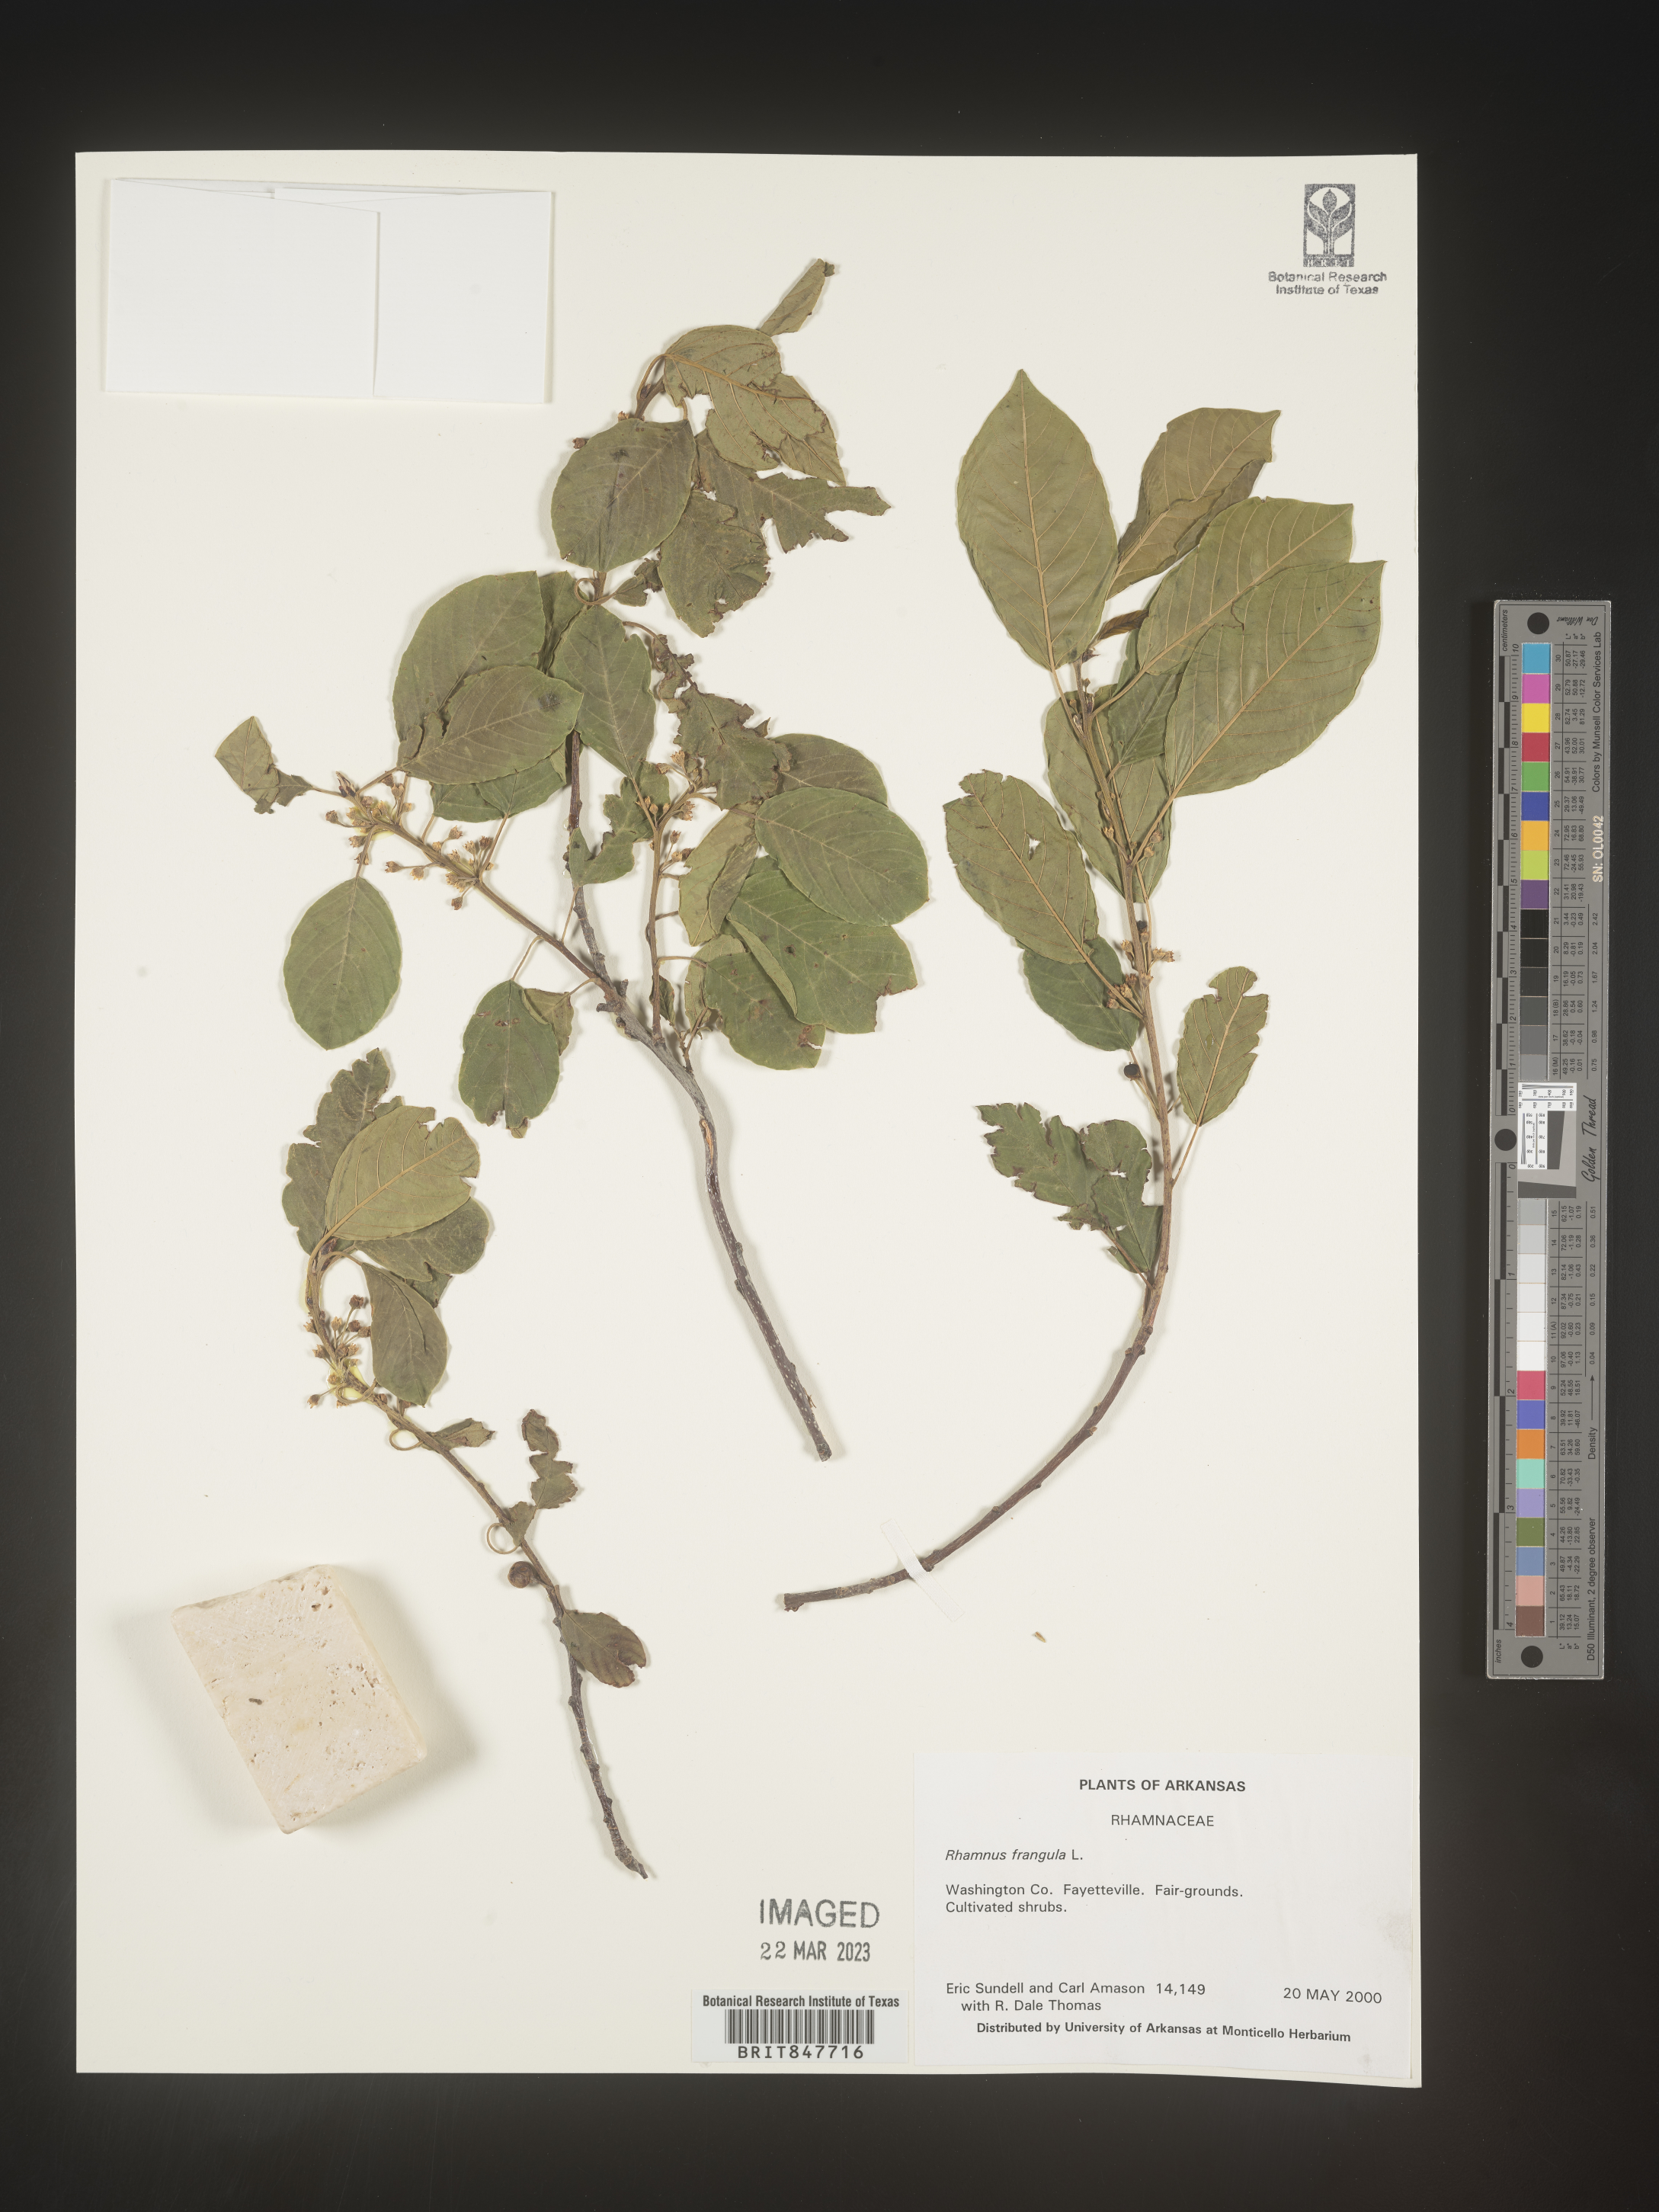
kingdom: Plantae
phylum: Tracheophyta
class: Magnoliopsida
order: Rosales
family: Rhamnaceae
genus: Frangula
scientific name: Frangula alnus
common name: Alder buckthorn
